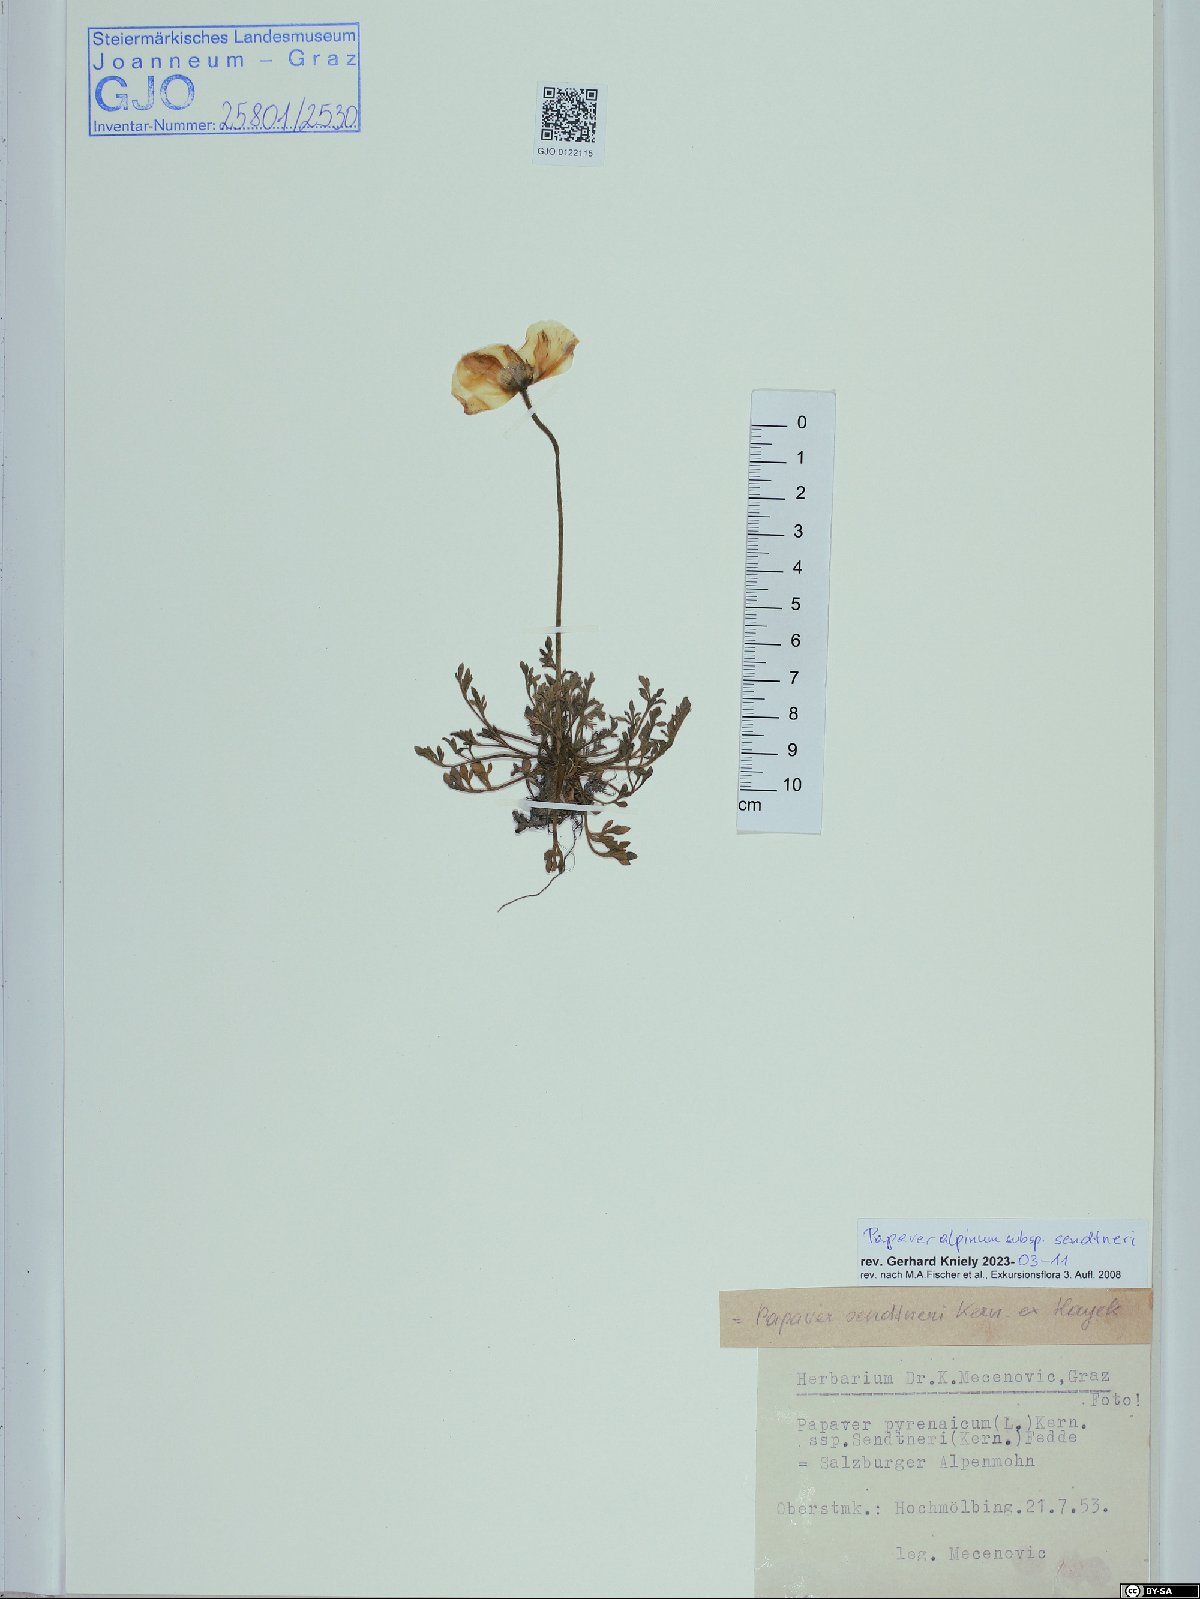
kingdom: Plantae
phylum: Tracheophyta
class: Magnoliopsida
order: Ranunculales
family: Papaveraceae
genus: Papaver
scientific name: Papaver alpinum
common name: Austrian poppy
